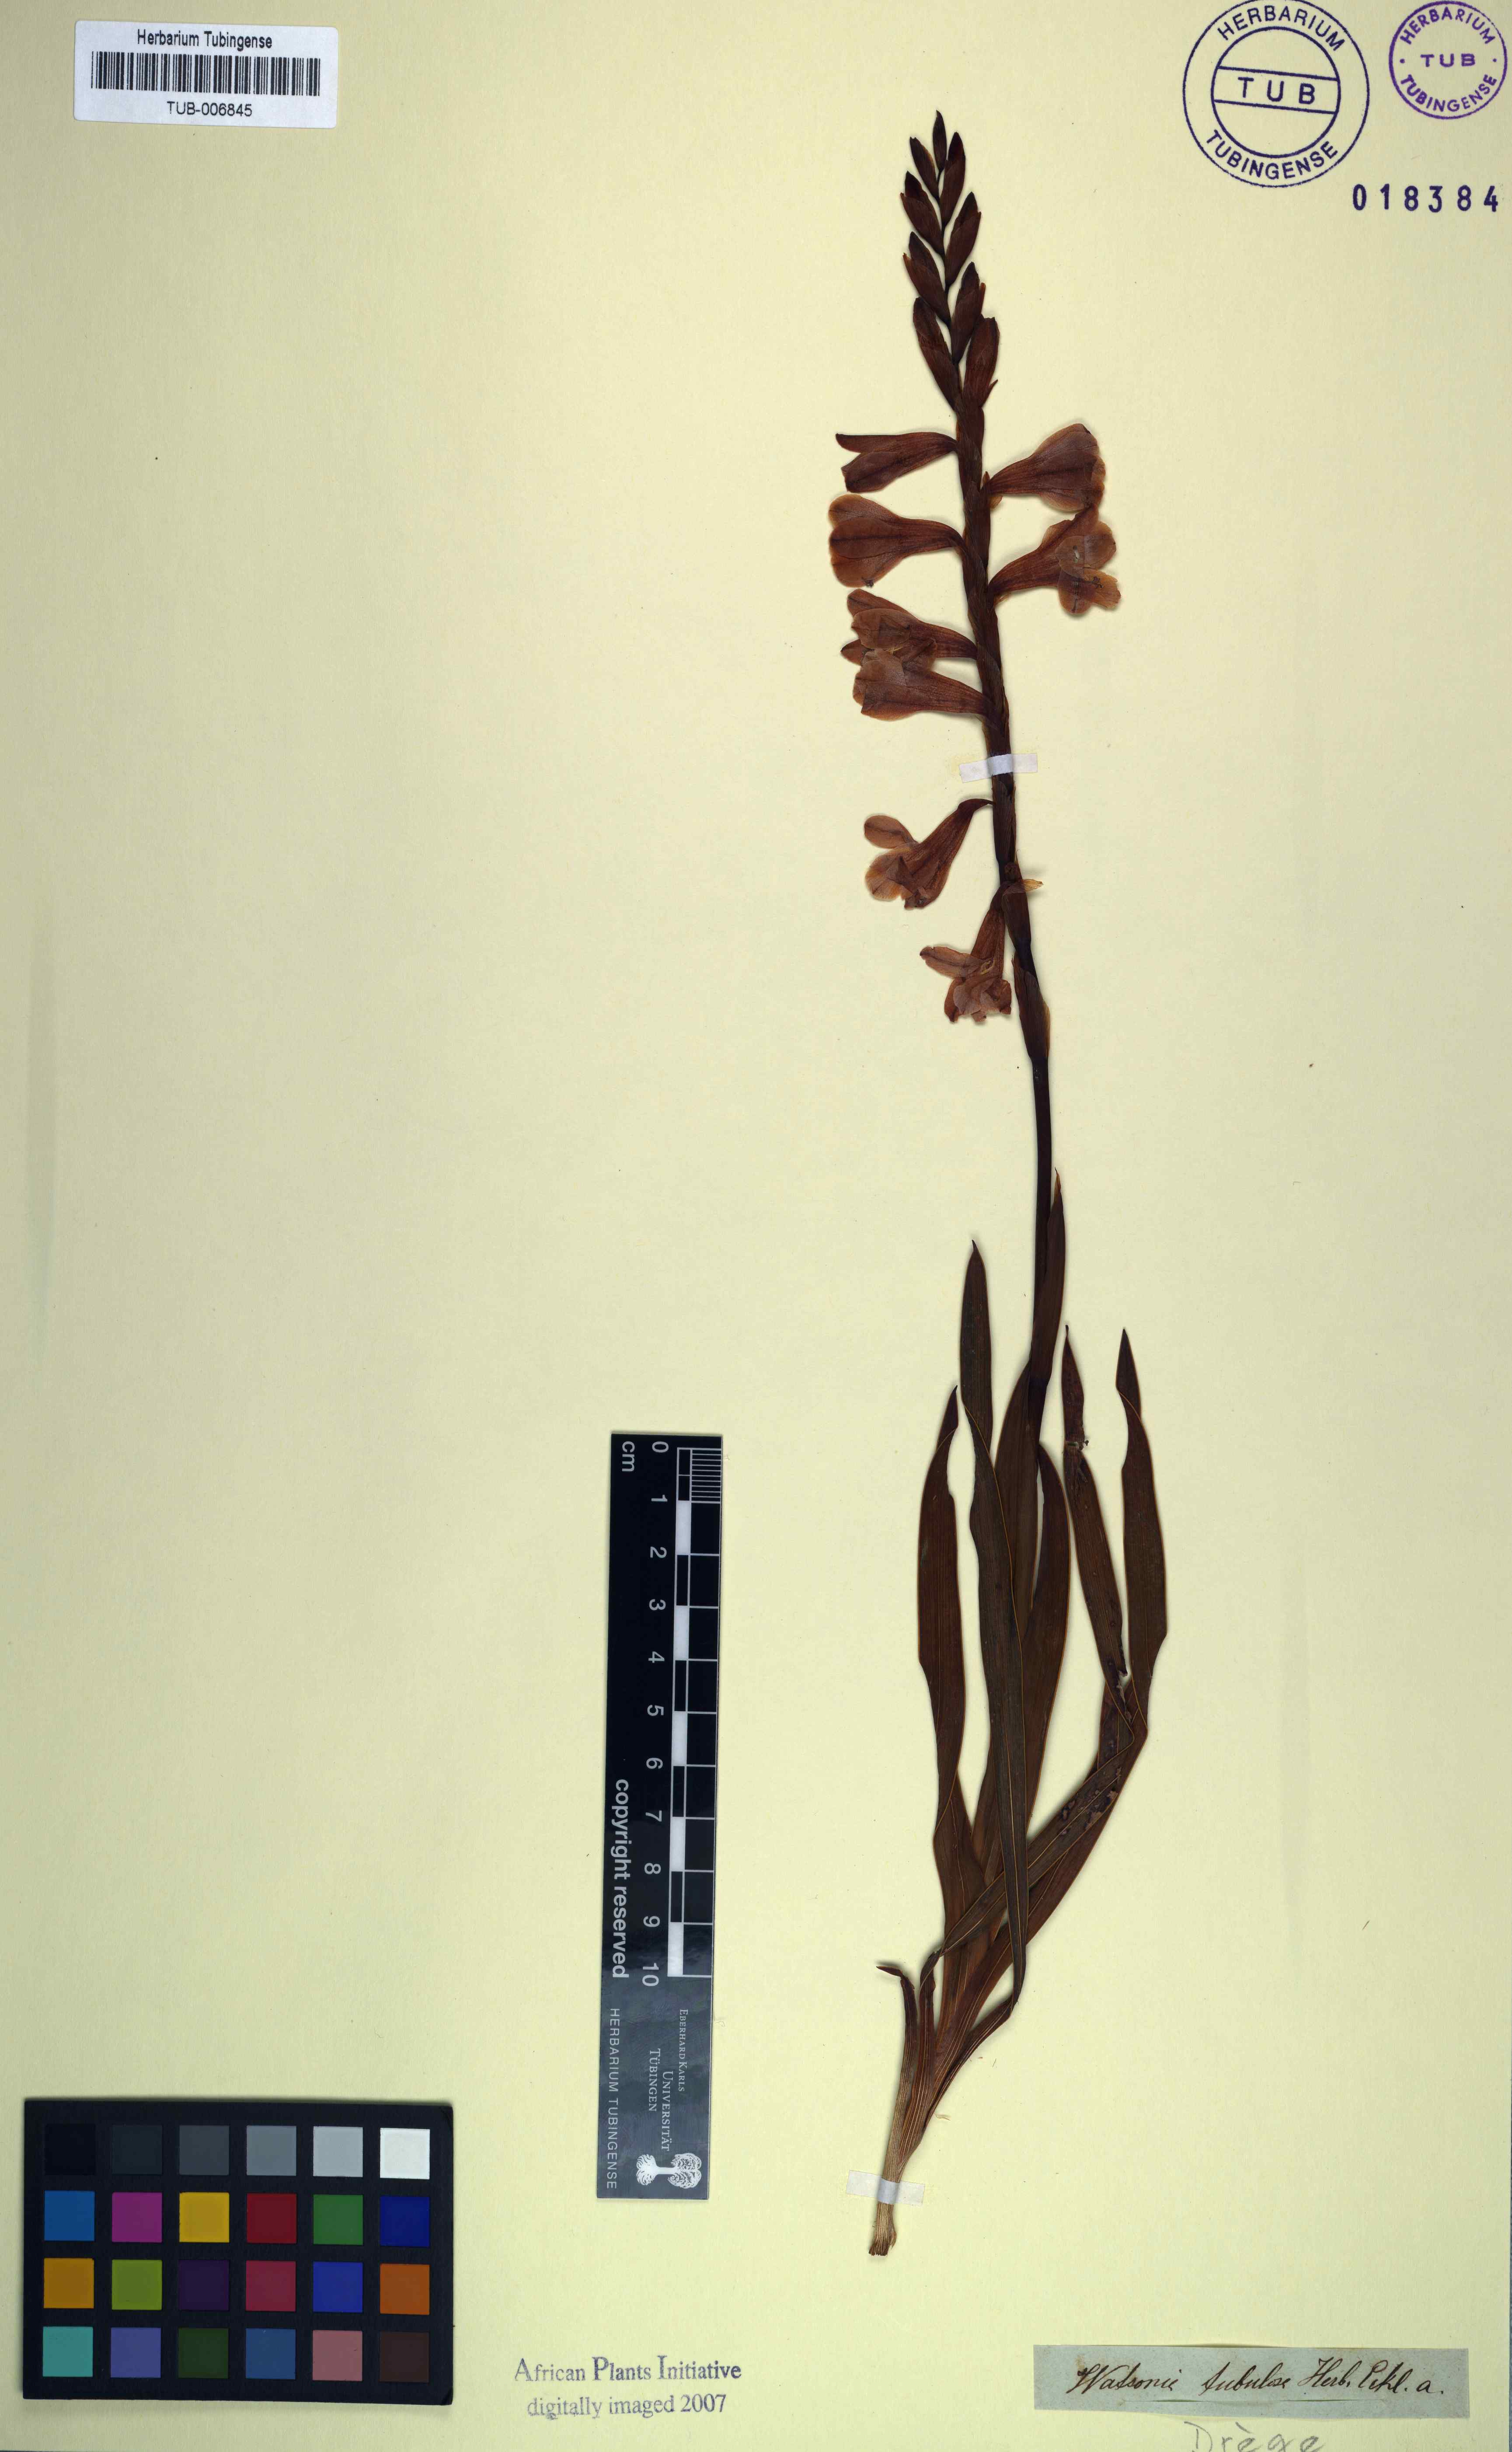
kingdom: Plantae
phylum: Tracheophyta
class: Liliopsida
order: Asparagales
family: Iridaceae
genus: Watsonia
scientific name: Watsonia marginata
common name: Fragrant bugle-lily
